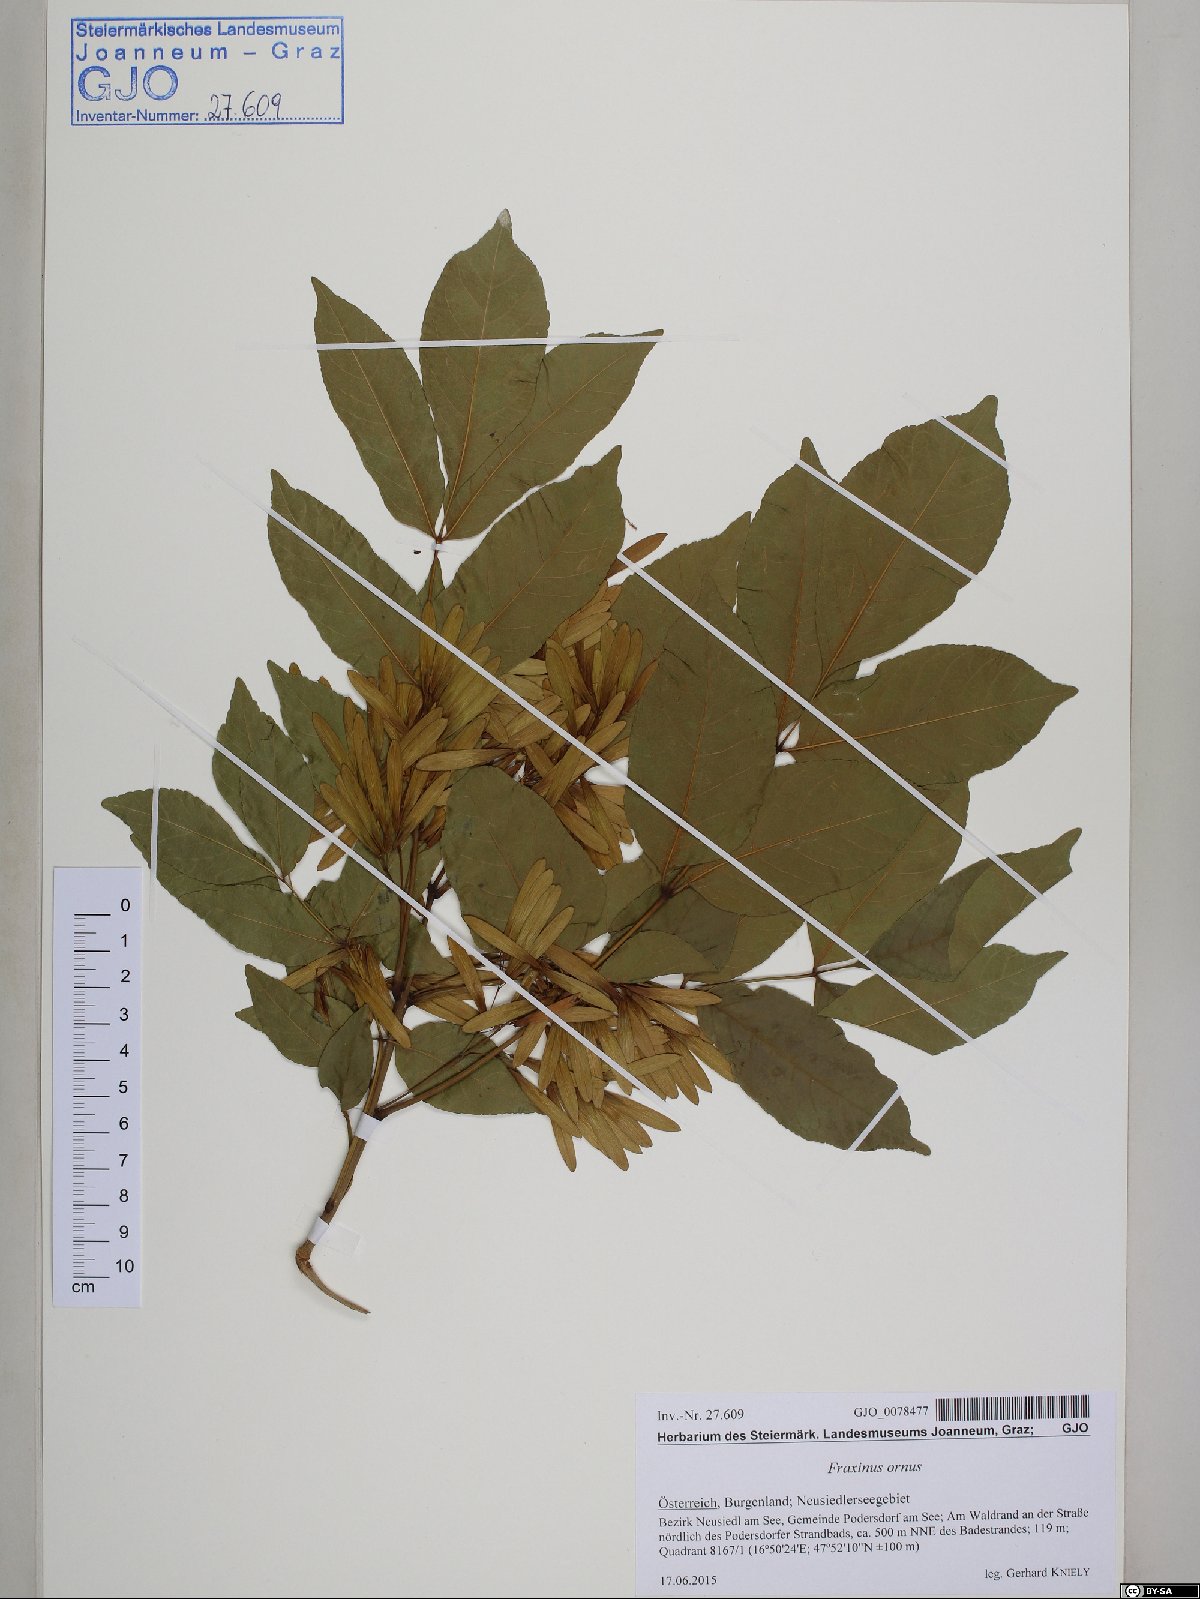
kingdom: Plantae
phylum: Tracheophyta
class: Magnoliopsida
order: Lamiales
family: Oleaceae
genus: Fraxinus
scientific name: Fraxinus ornus
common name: Manna ash
